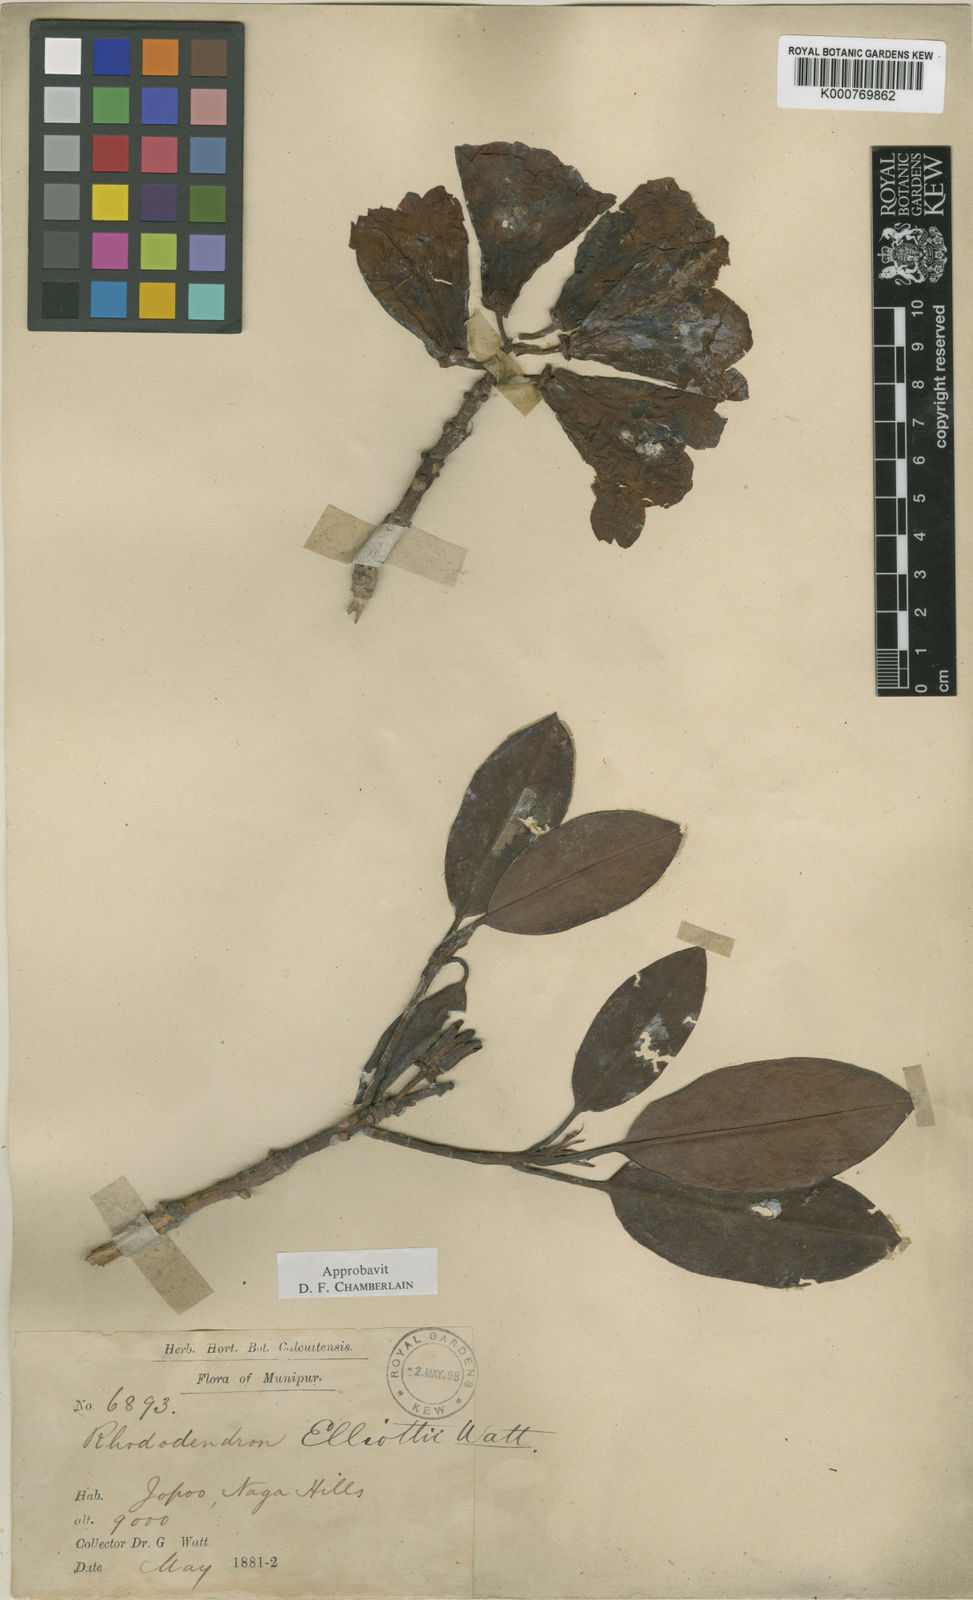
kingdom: Plantae
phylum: Tracheophyta
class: Magnoliopsida
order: Ericales
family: Ericaceae
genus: Rhododendron
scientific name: Rhododendron
